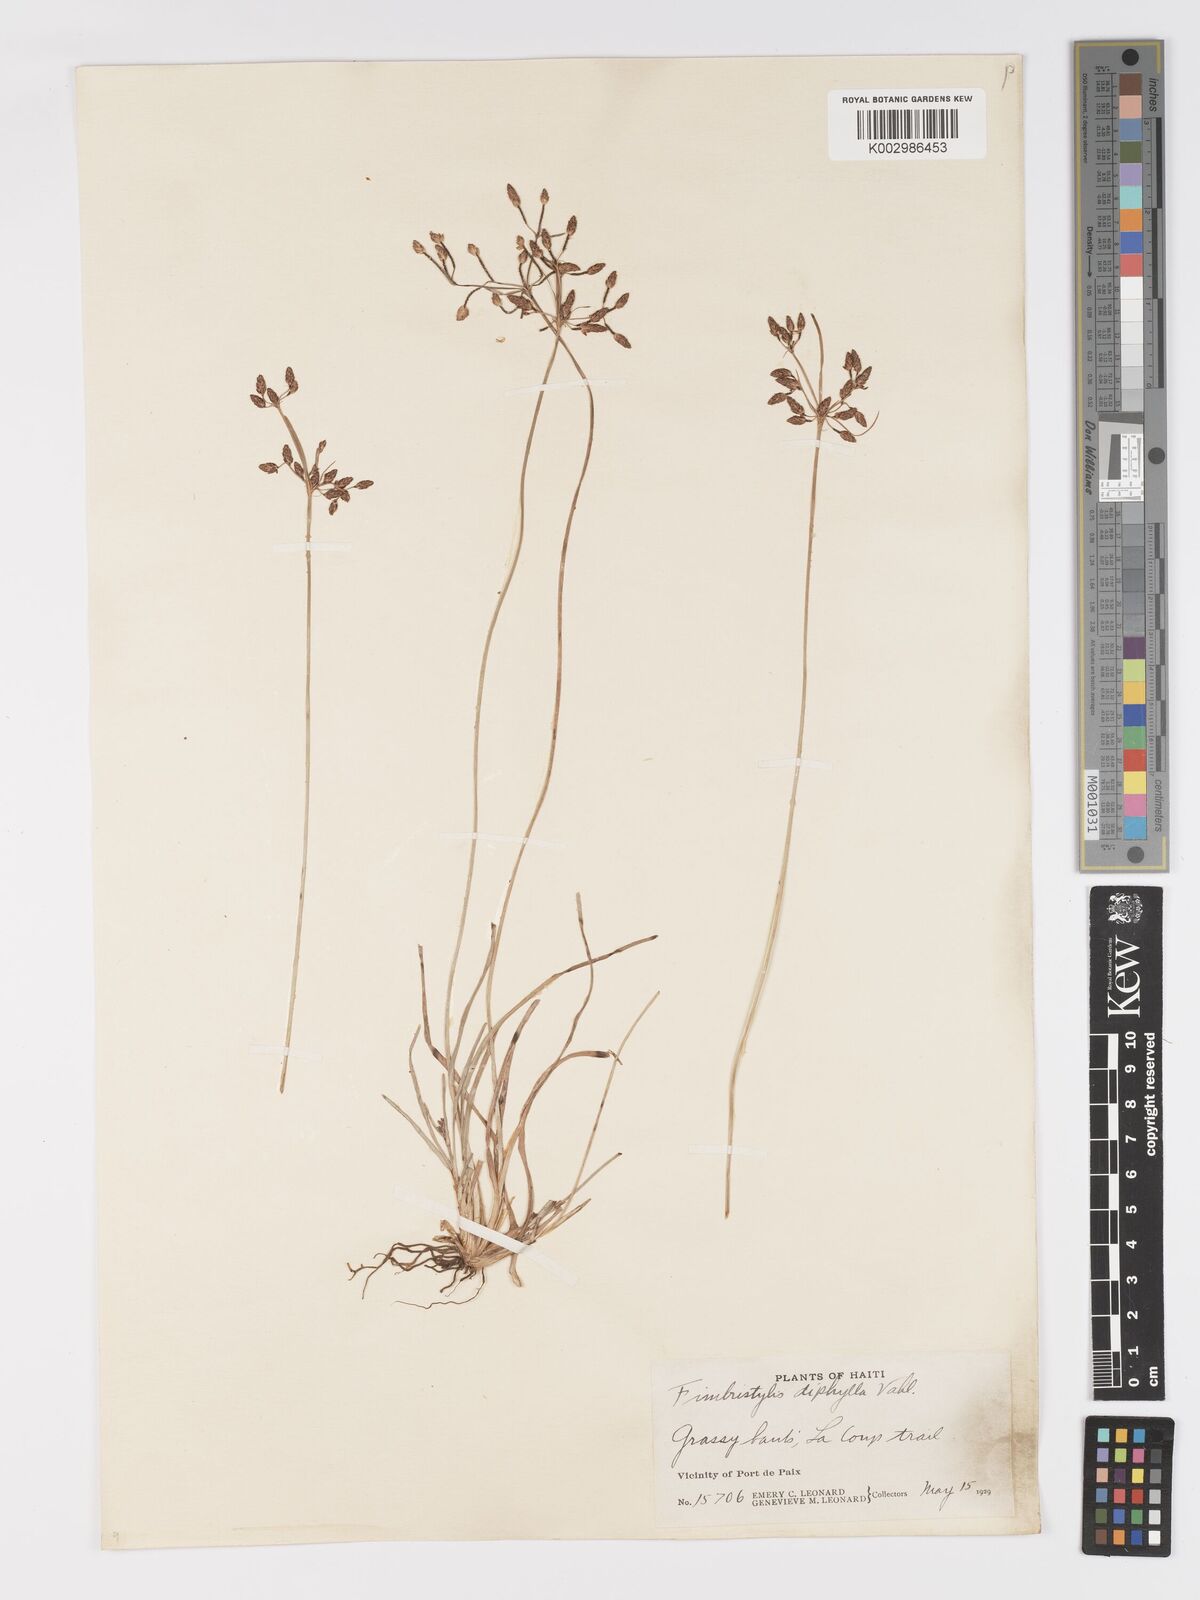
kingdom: Plantae
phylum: Tracheophyta
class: Liliopsida
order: Poales
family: Cyperaceae
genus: Fimbristylis
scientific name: Fimbristylis dichotoma
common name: Forked fimbry
